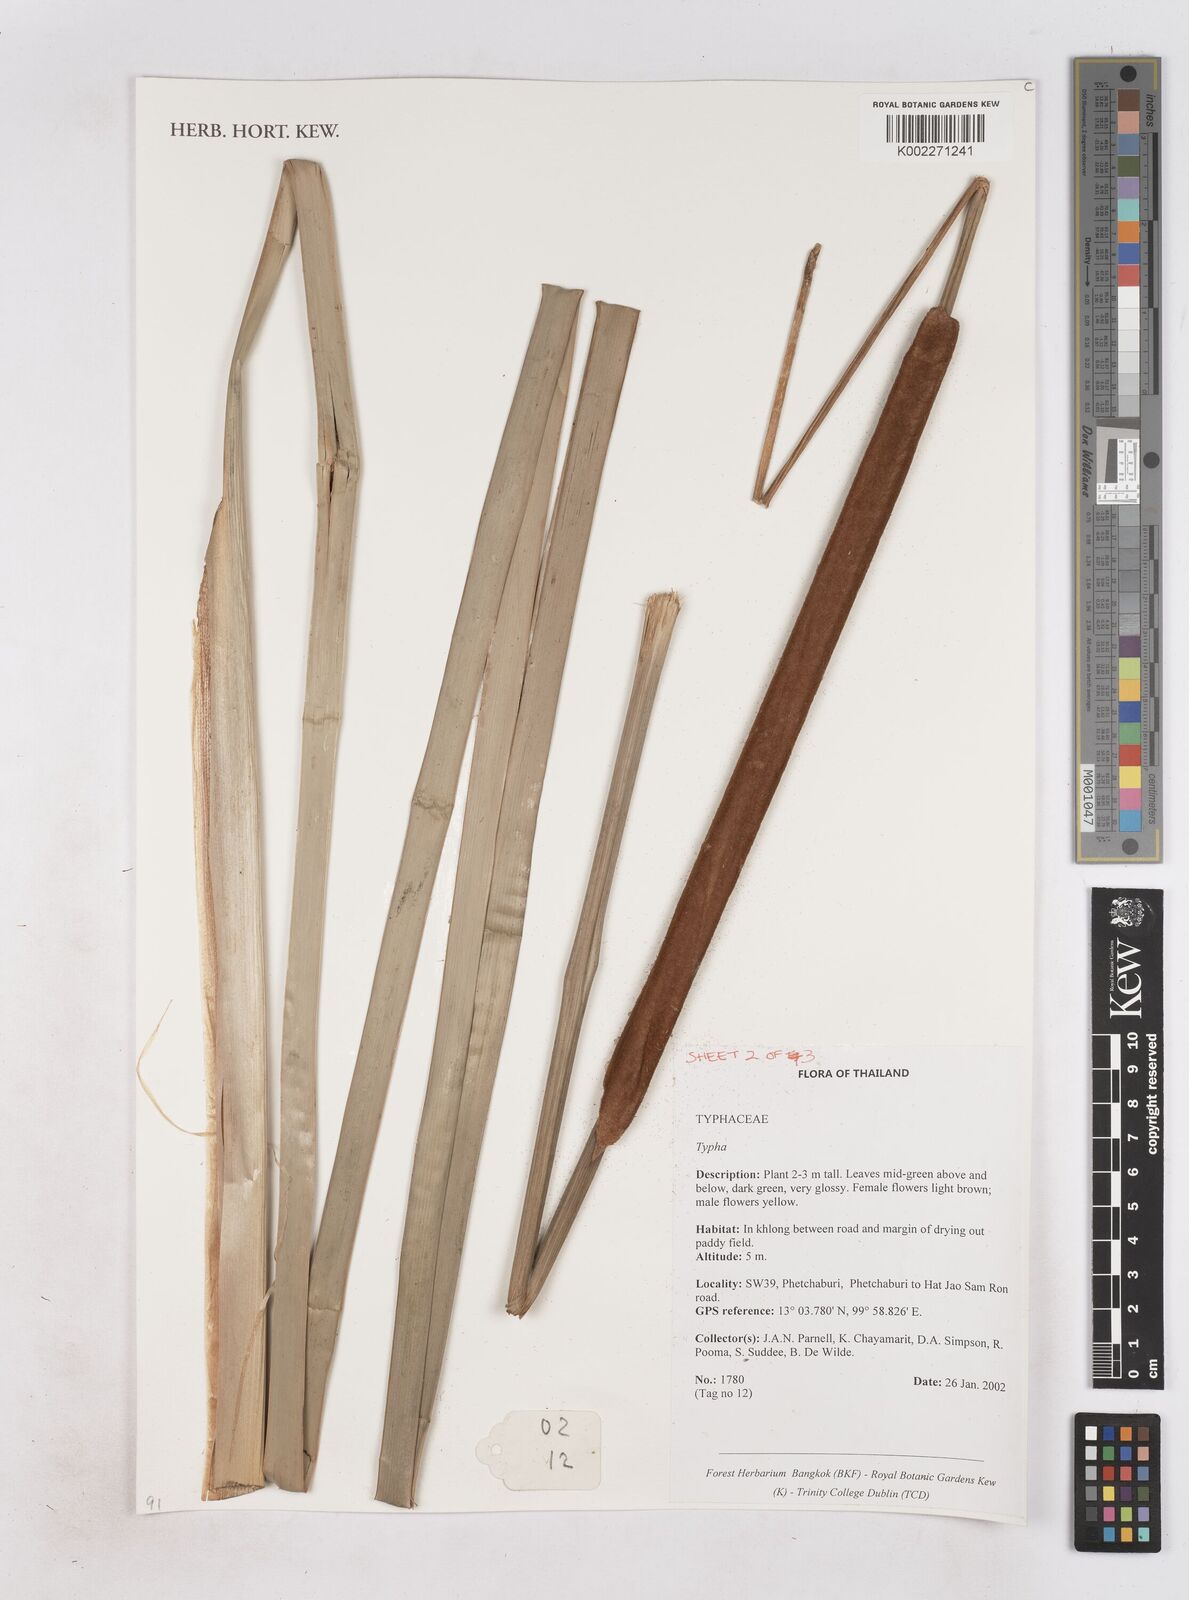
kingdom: Plantae
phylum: Tracheophyta
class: Liliopsida
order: Poales
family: Typhaceae
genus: Typha
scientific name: Typha
